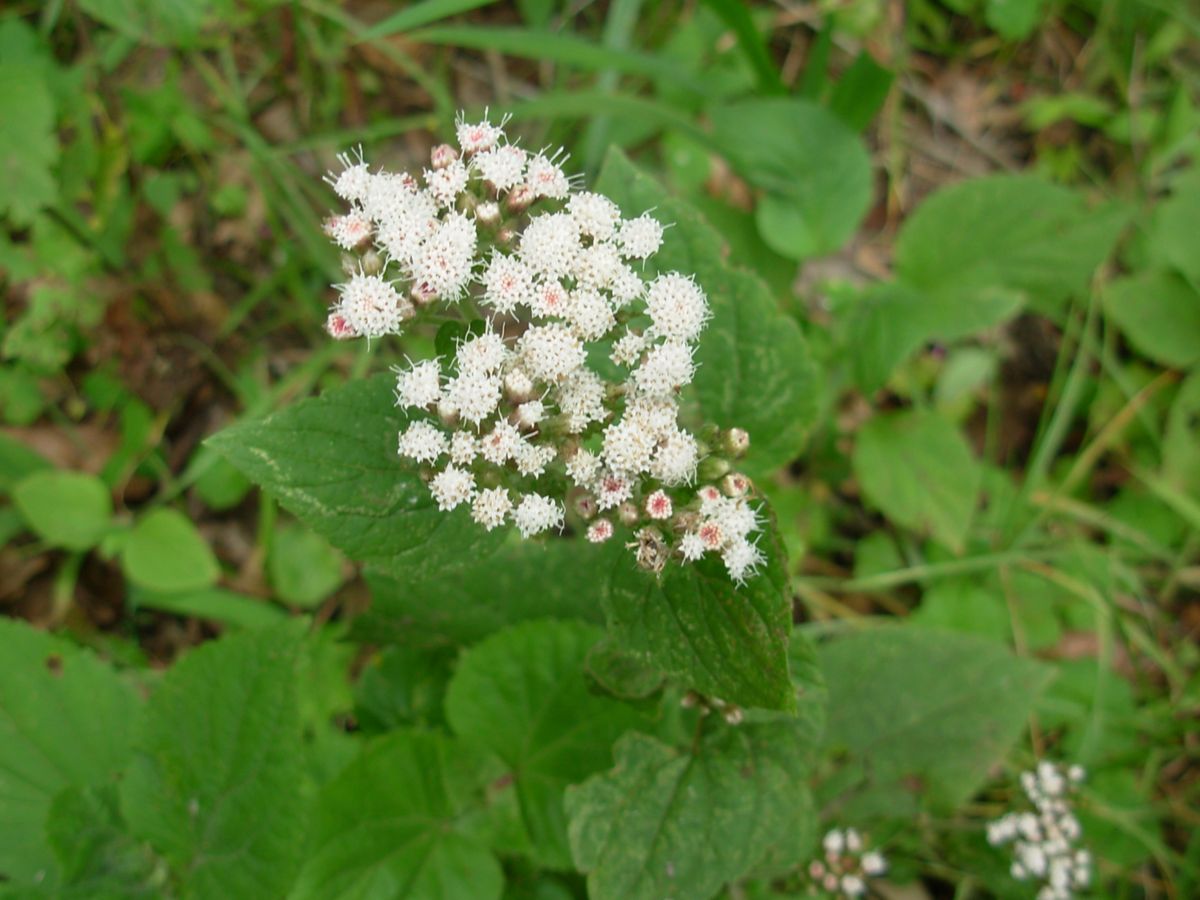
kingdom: Plantae
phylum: Tracheophyta
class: Magnoliopsida
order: Asterales
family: Asteraceae
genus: Ageratum
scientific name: Ageratum cordatum
